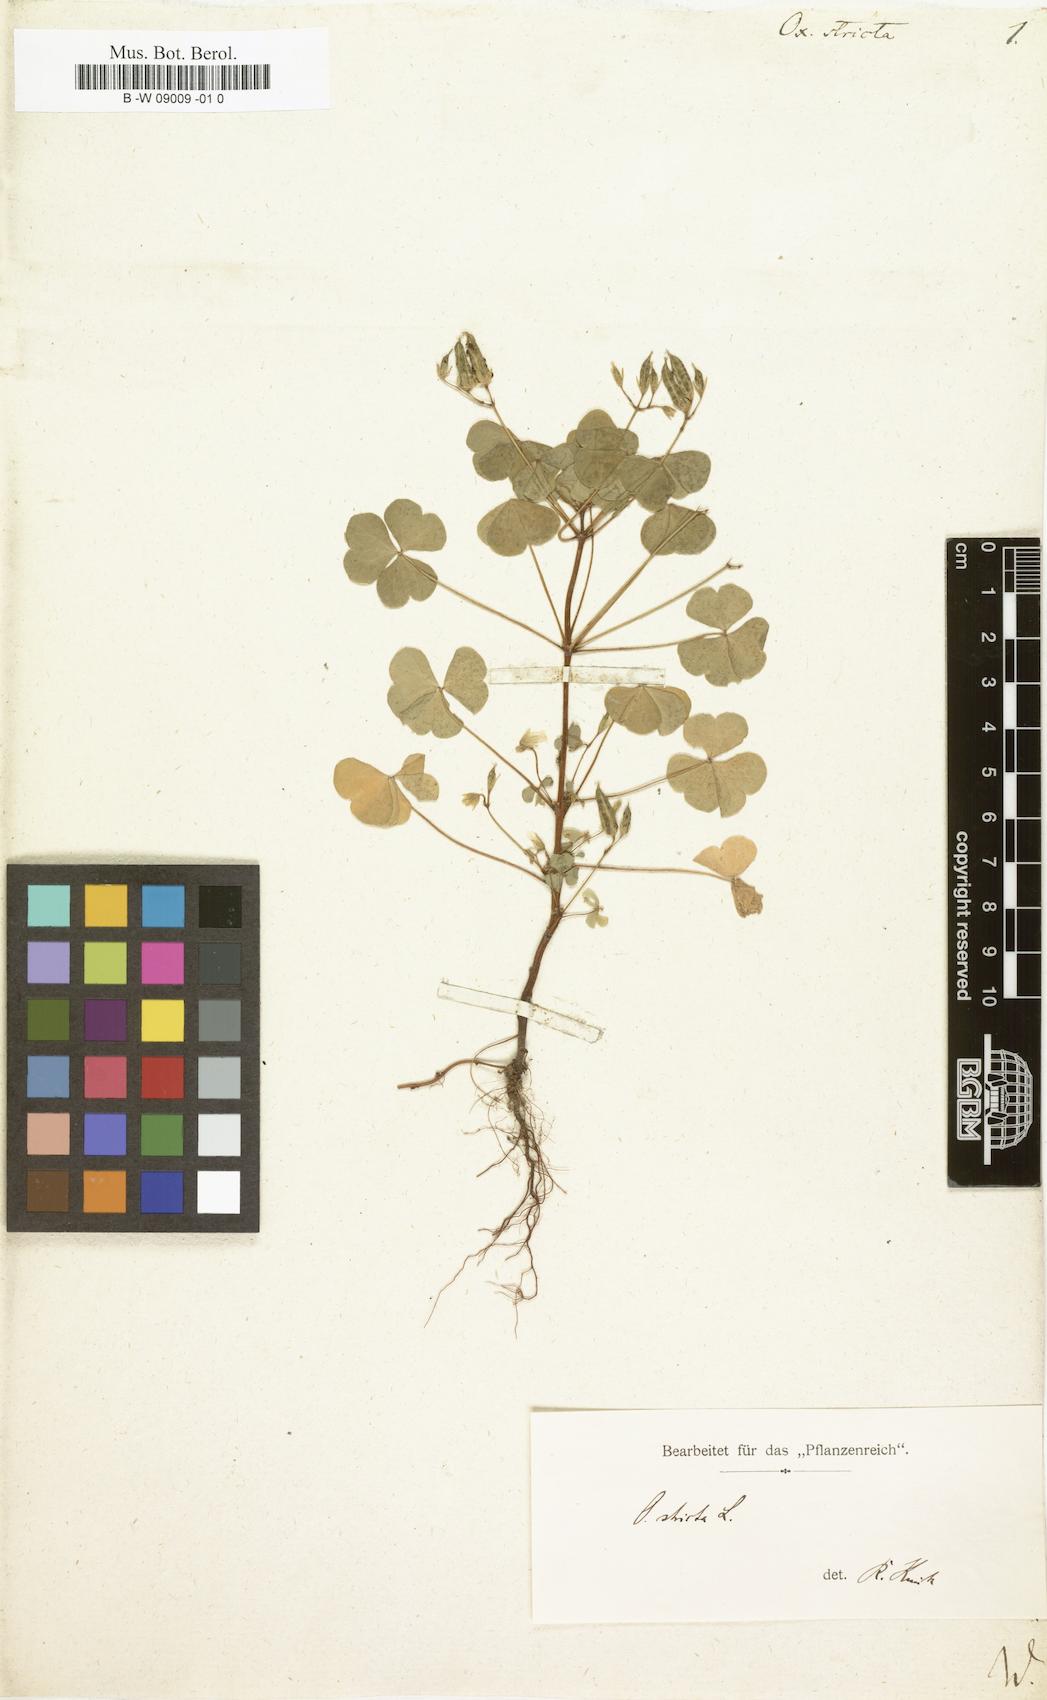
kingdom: Plantae
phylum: Tracheophyta
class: Magnoliopsida
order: Oxalidales
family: Oxalidaceae
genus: Oxalis
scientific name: Oxalis stricta
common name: Upright yellow-sorrel
